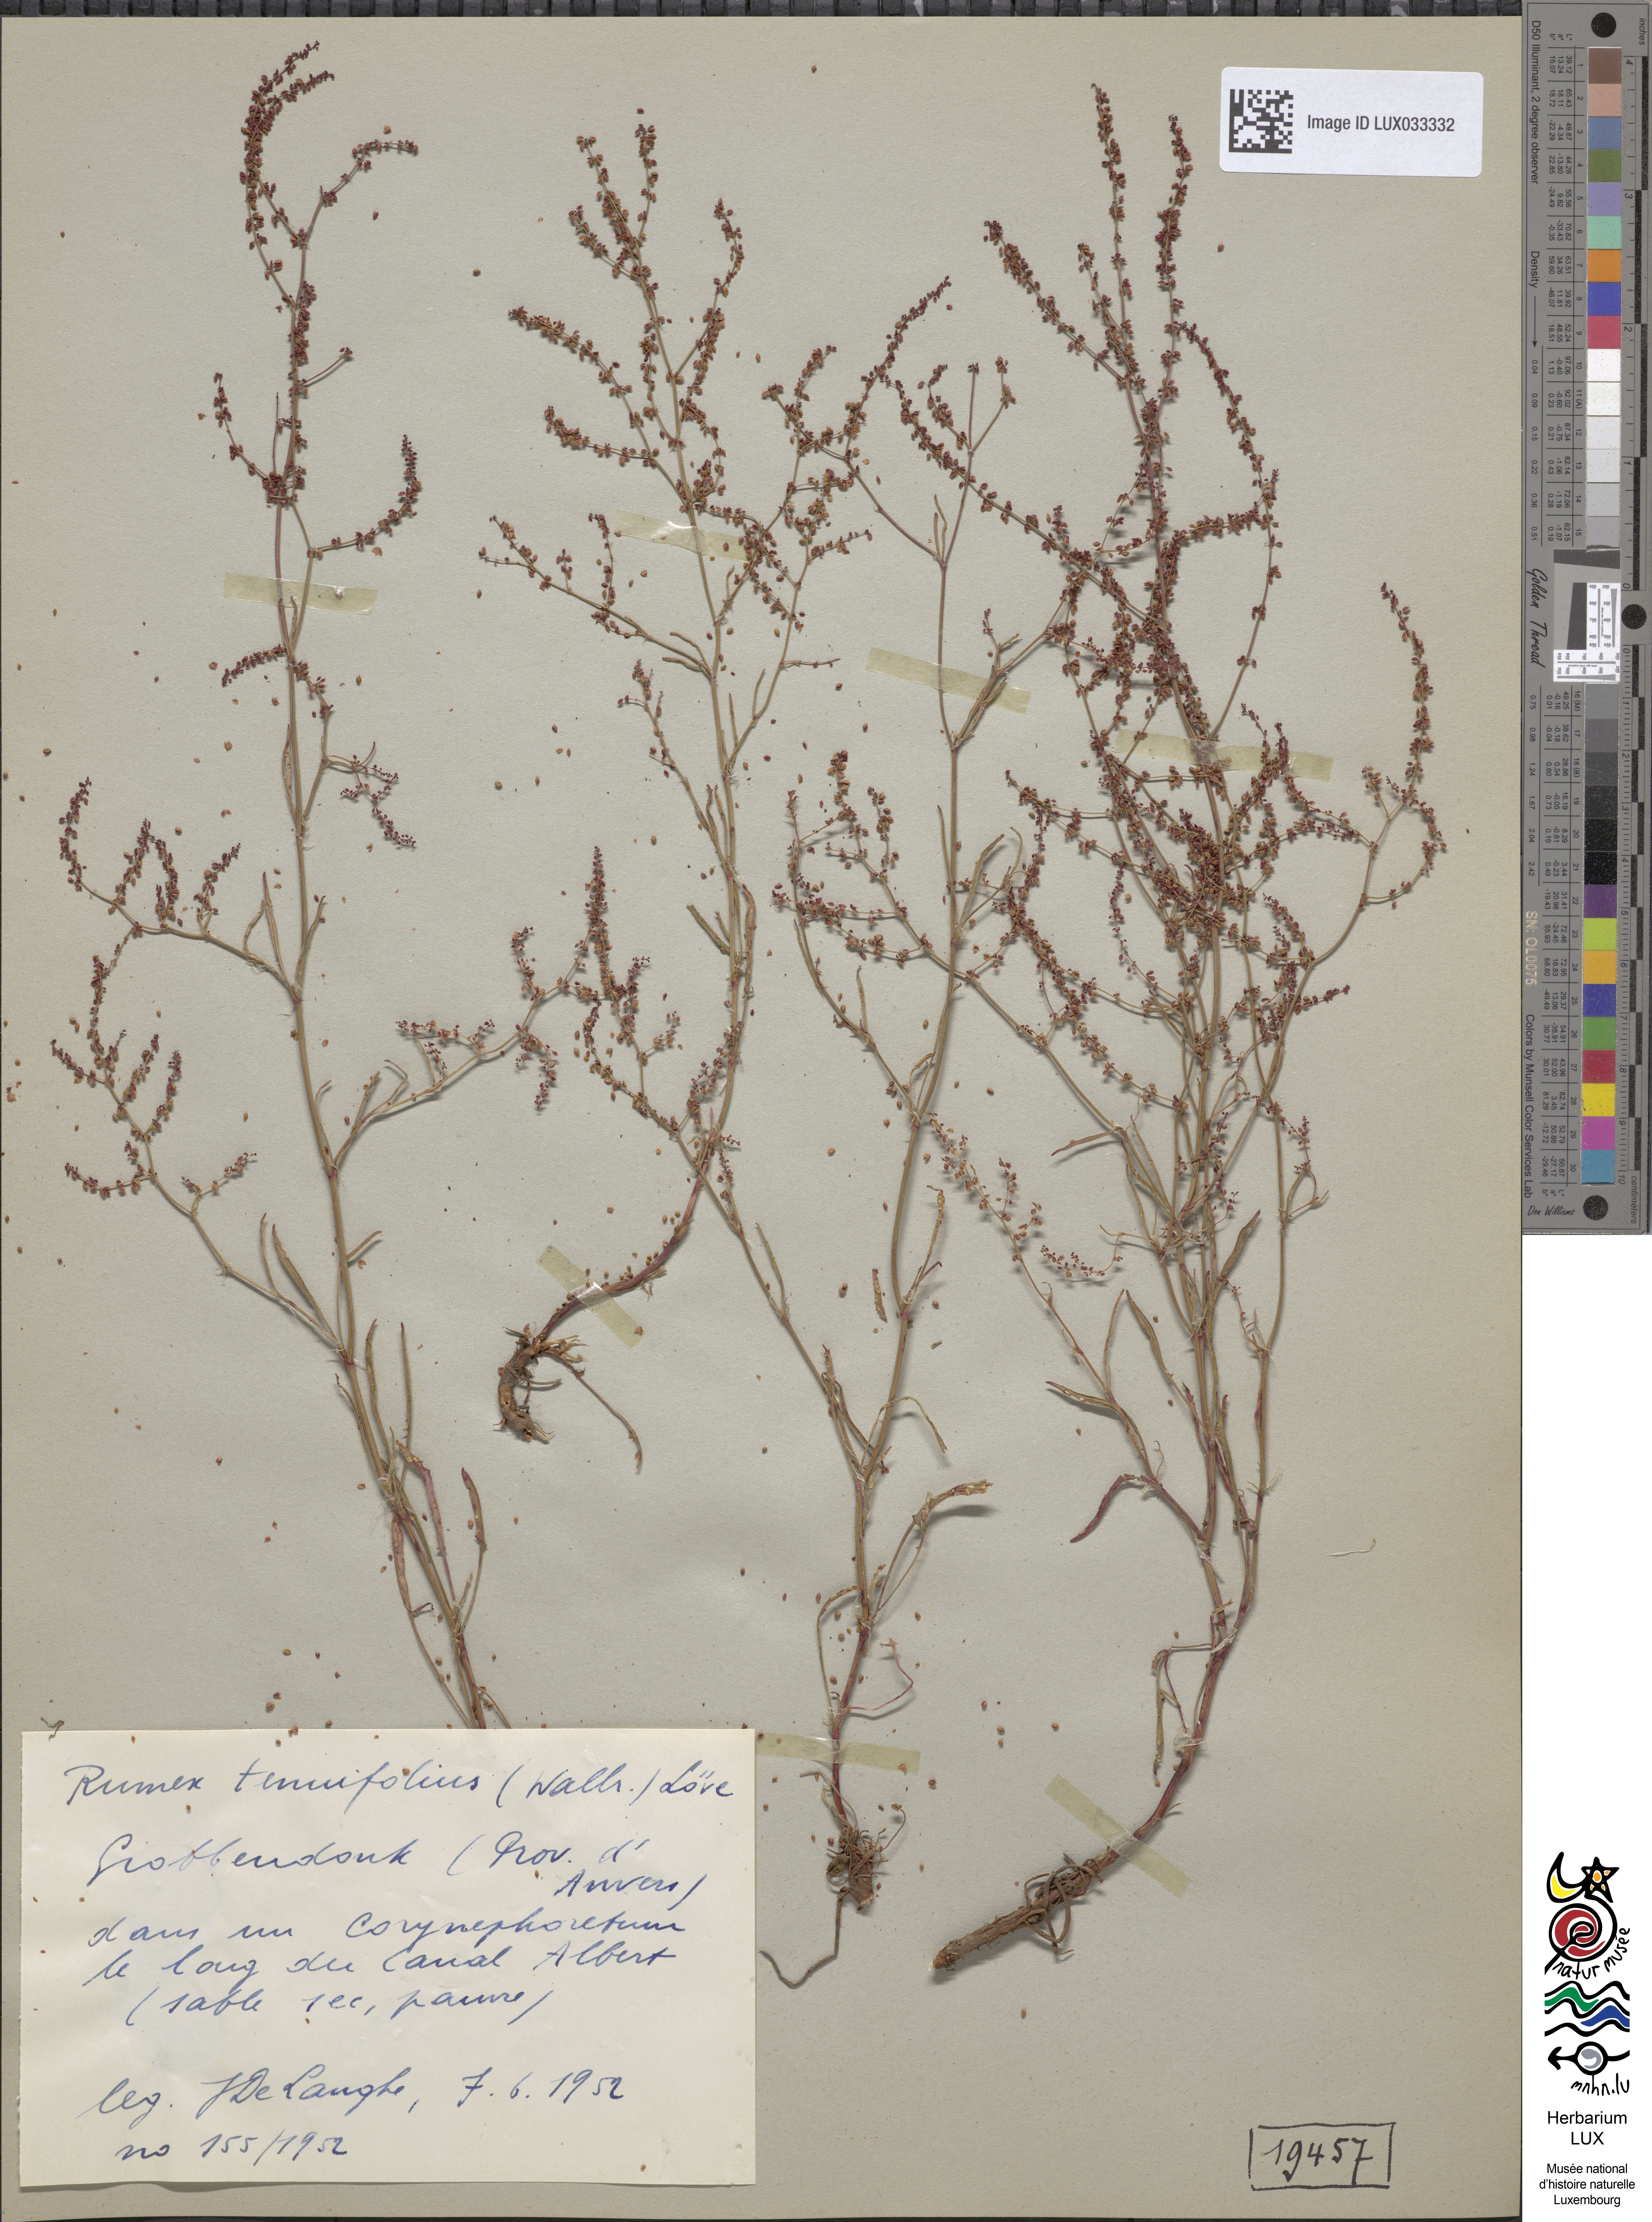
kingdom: Plantae
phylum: Tracheophyta
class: Magnoliopsida
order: Caryophyllales
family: Polygonaceae
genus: Rumex
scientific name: Rumex acetosella
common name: Common sheep sorrel
